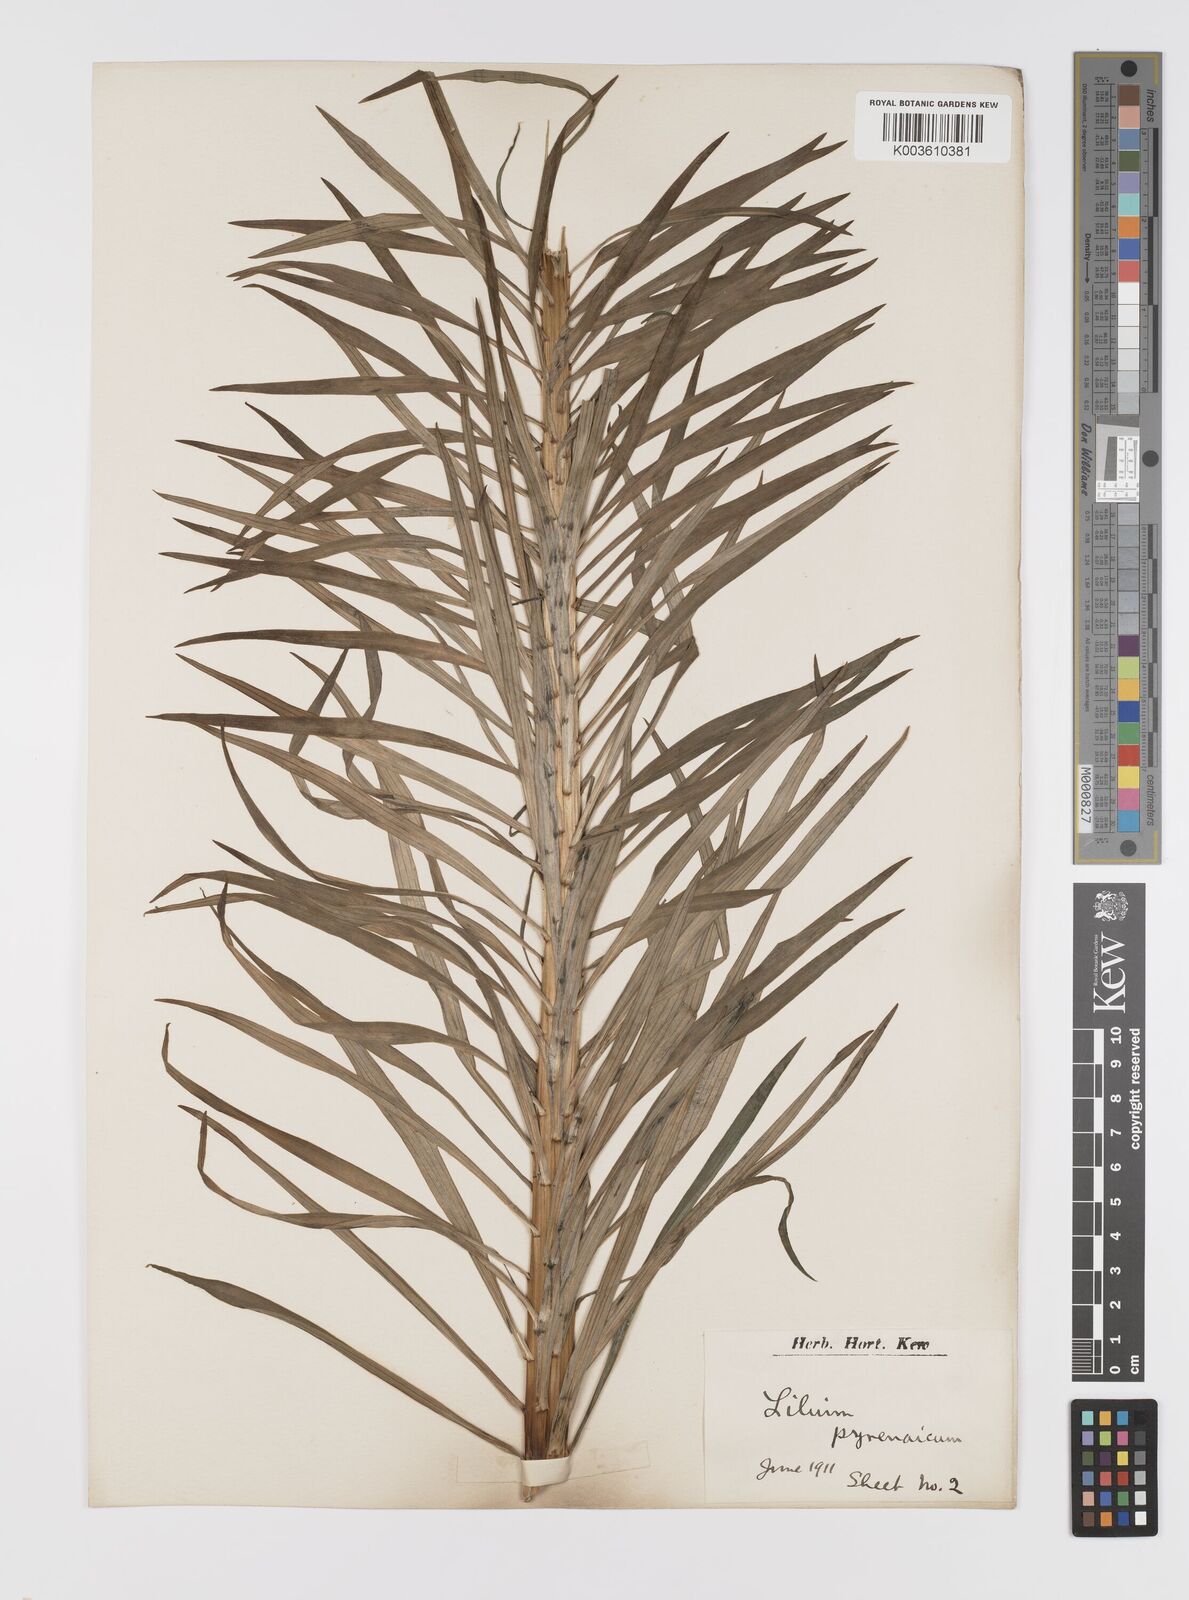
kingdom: Plantae
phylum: Tracheophyta
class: Liliopsida
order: Liliales
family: Liliaceae
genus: Lilium
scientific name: Lilium pyrenaicum
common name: Pyrenean lily
